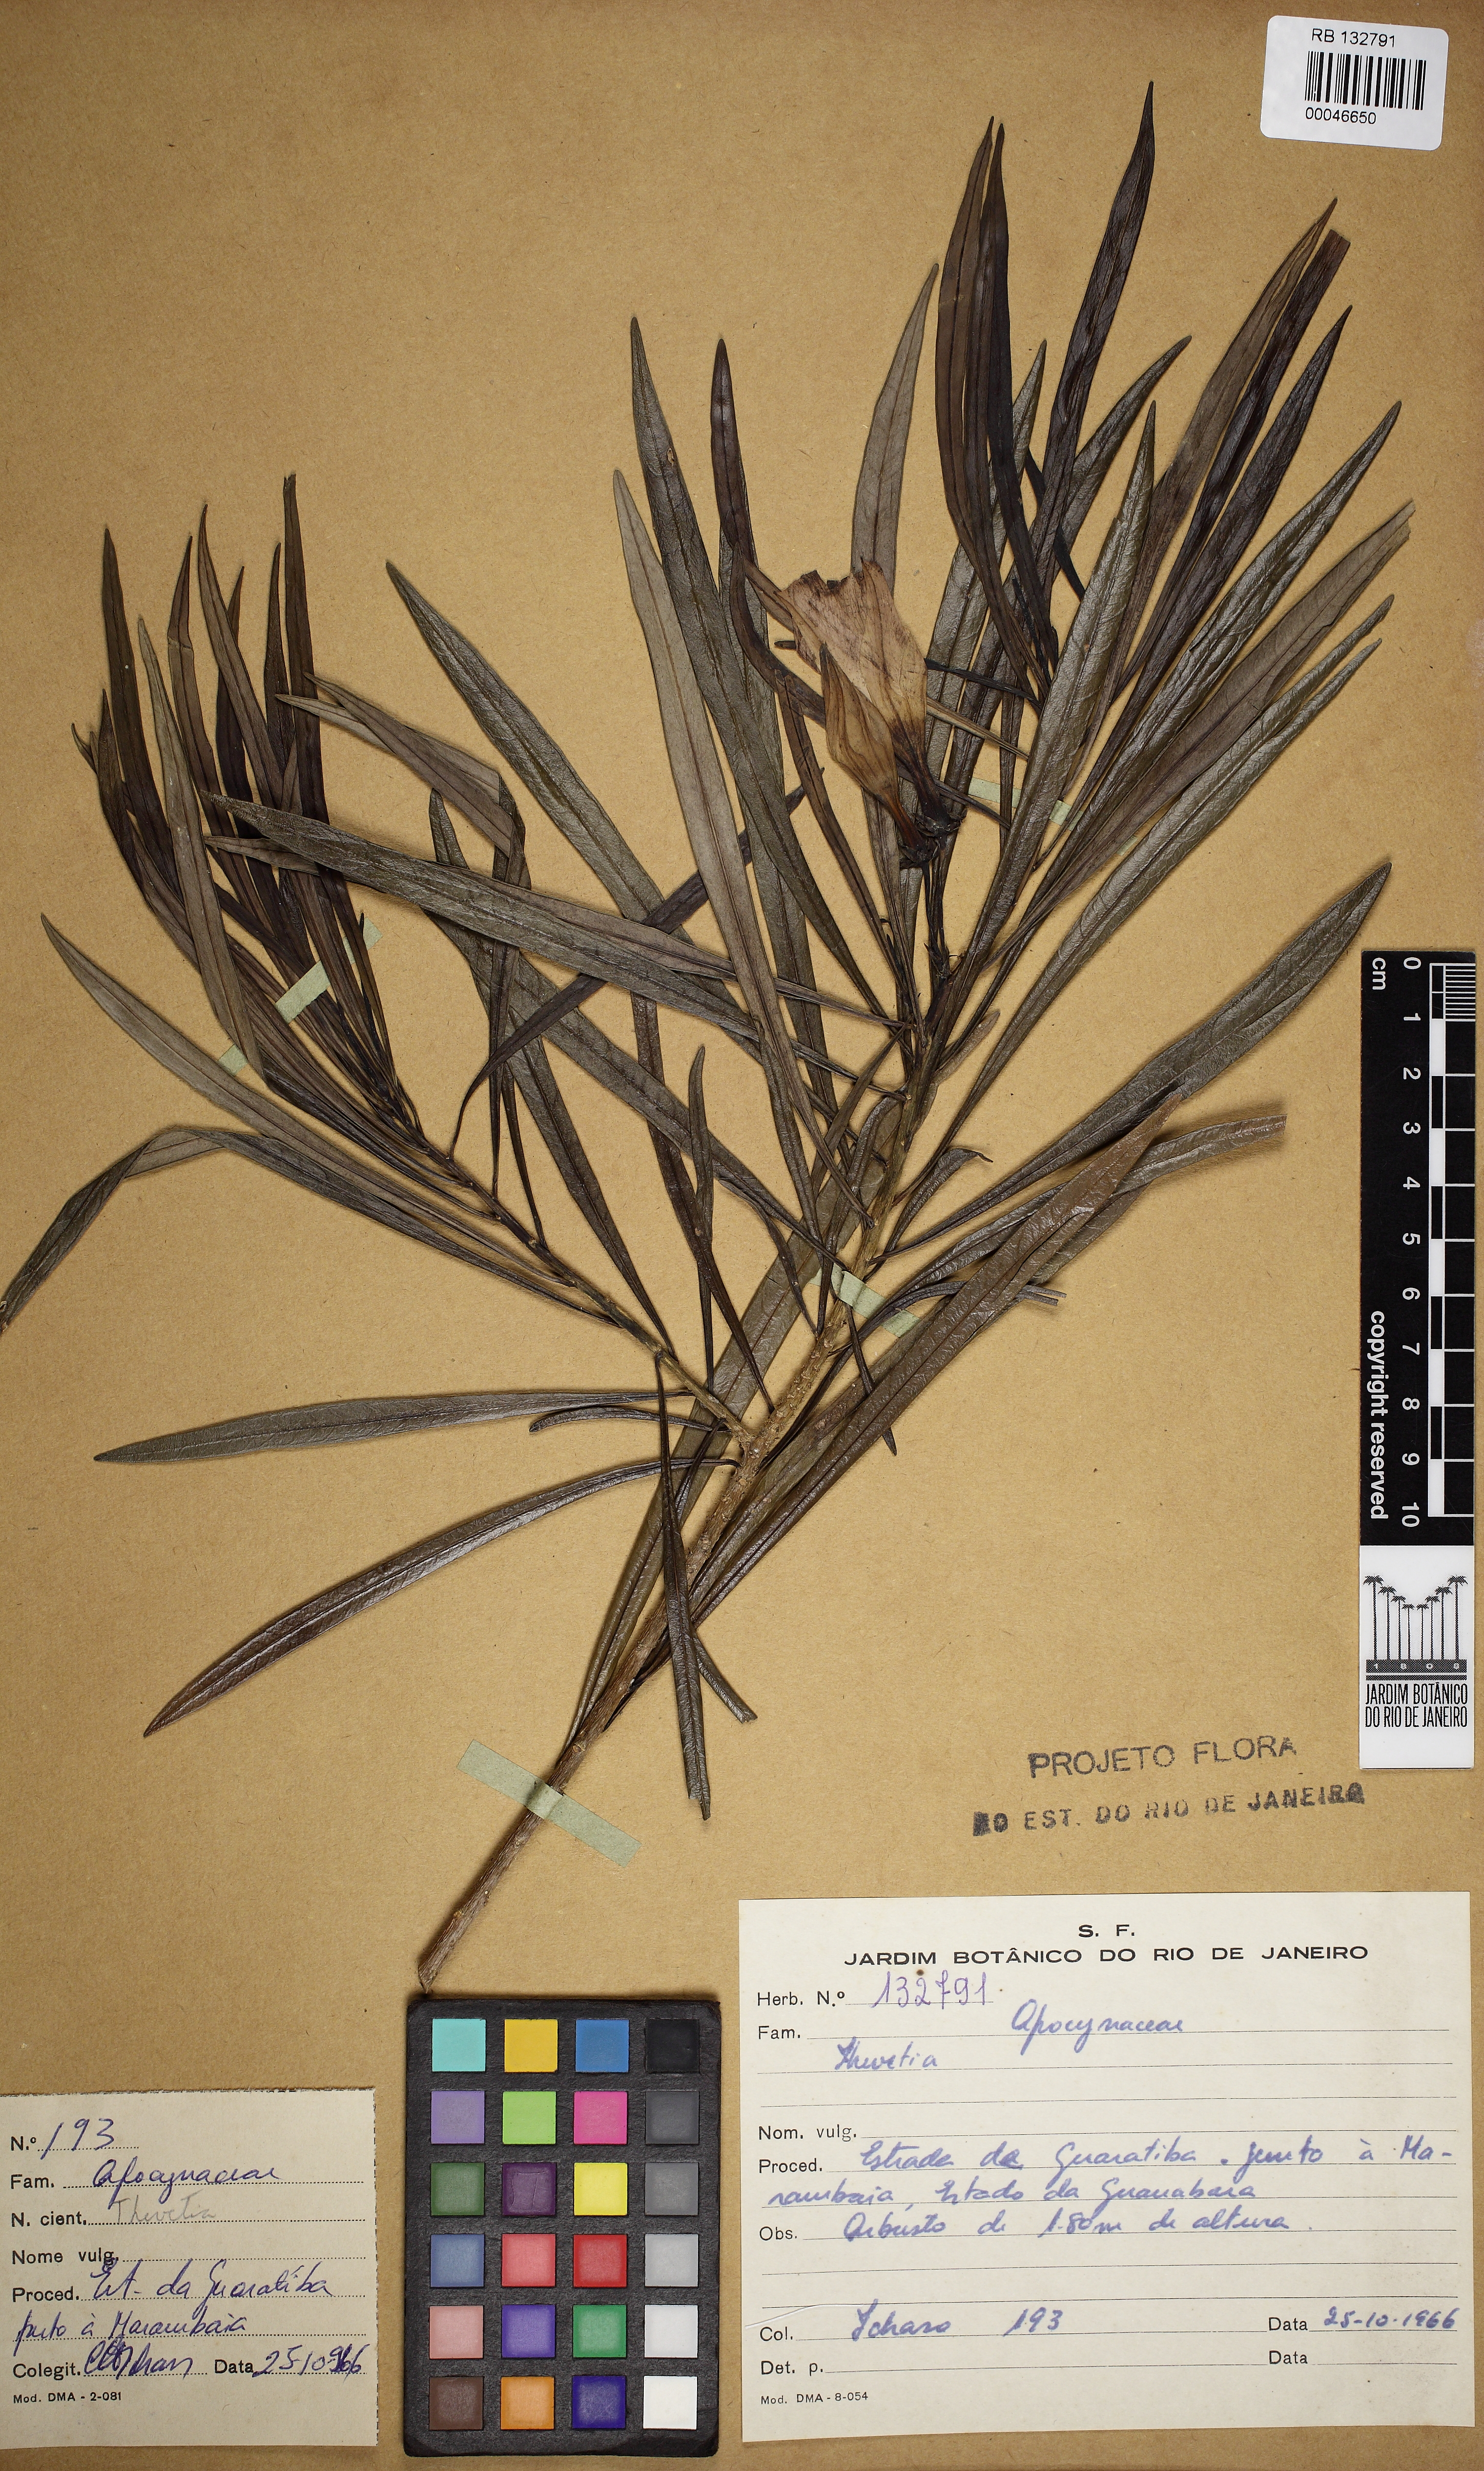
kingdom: Plantae
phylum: Tracheophyta
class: Magnoliopsida
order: Gentianales
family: Apocynaceae
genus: Thevetia
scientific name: Thevetia
